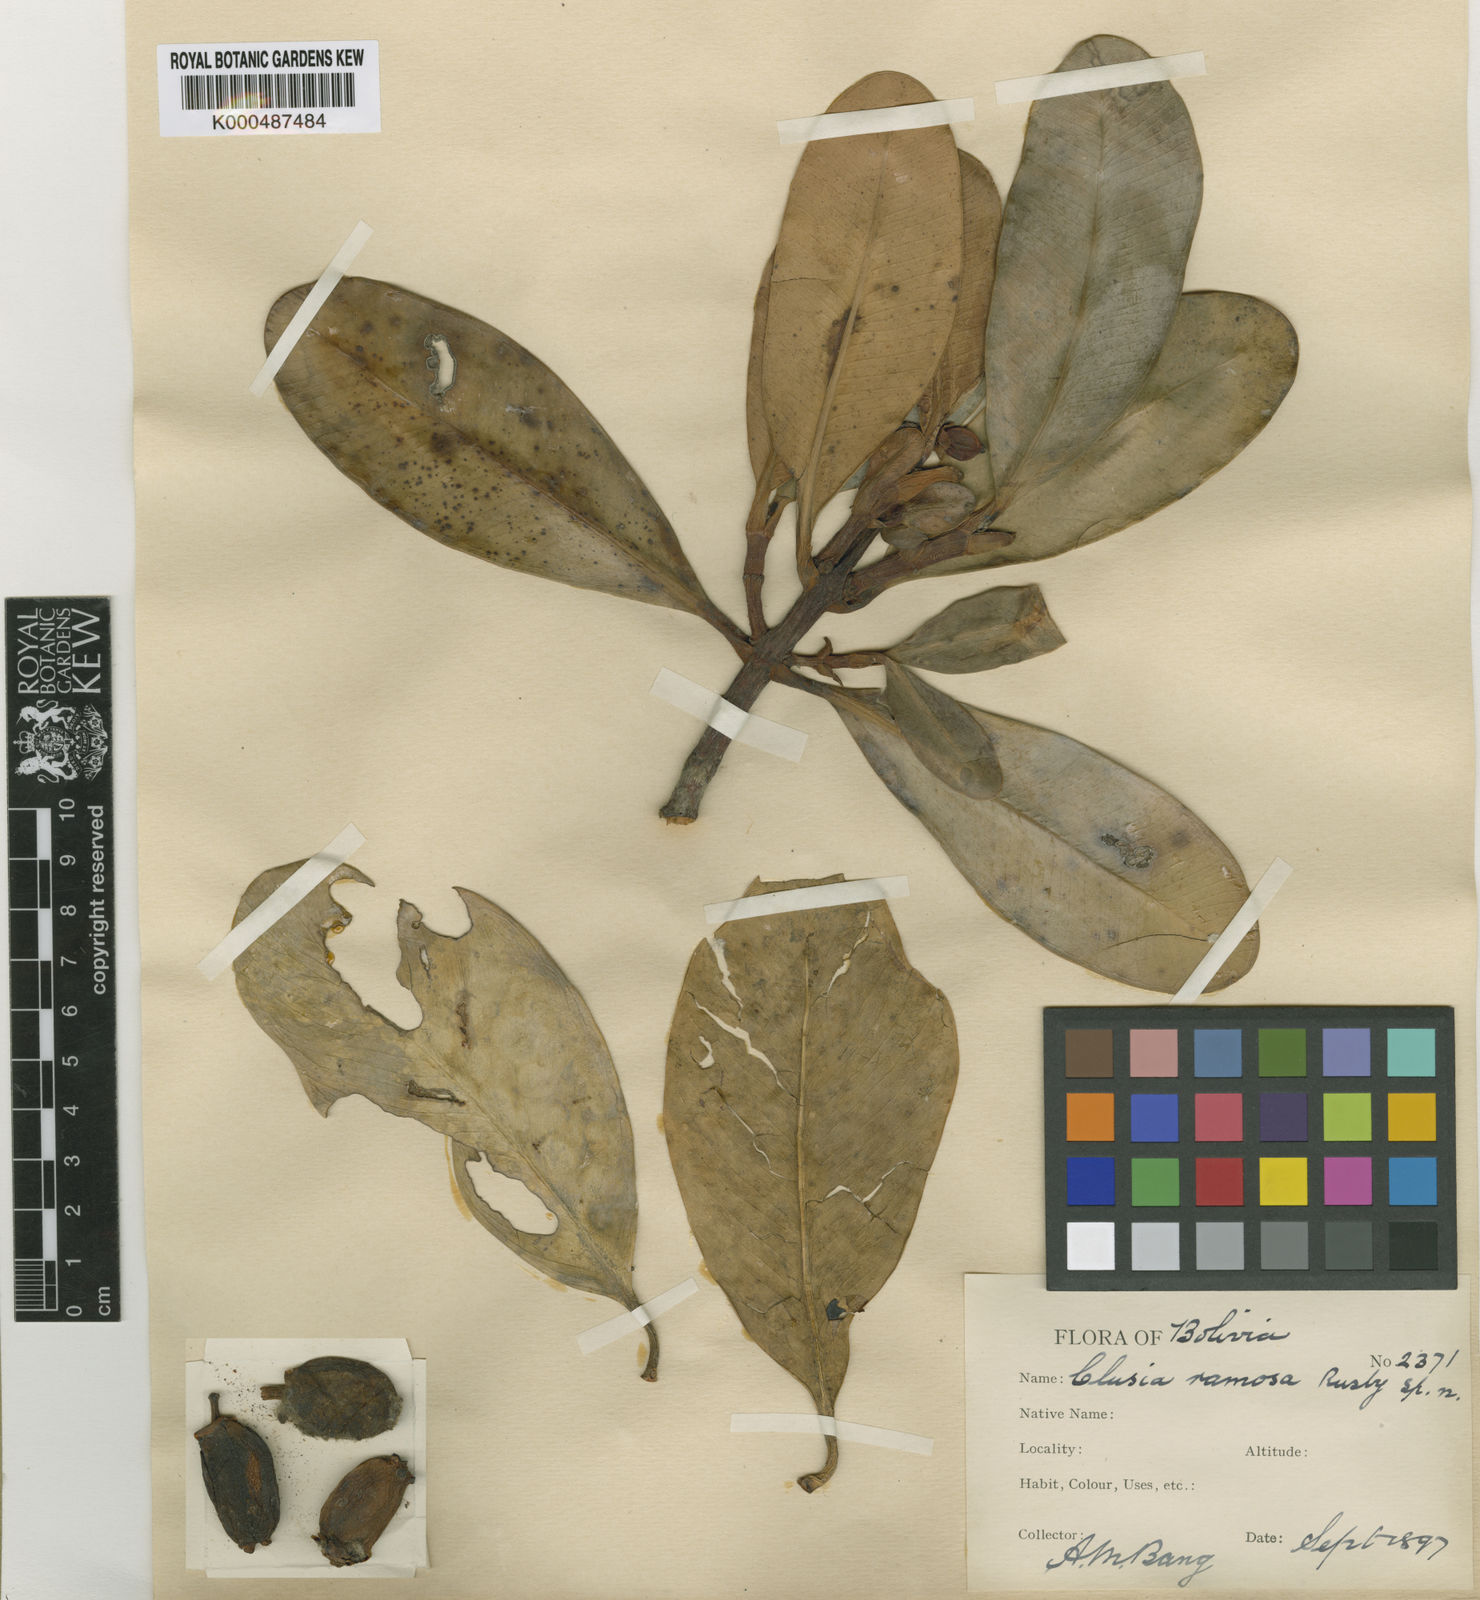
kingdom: Plantae
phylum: Tracheophyta
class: Magnoliopsida
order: Malpighiales
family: Clusiaceae
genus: Clusia
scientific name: Clusia ramosa
